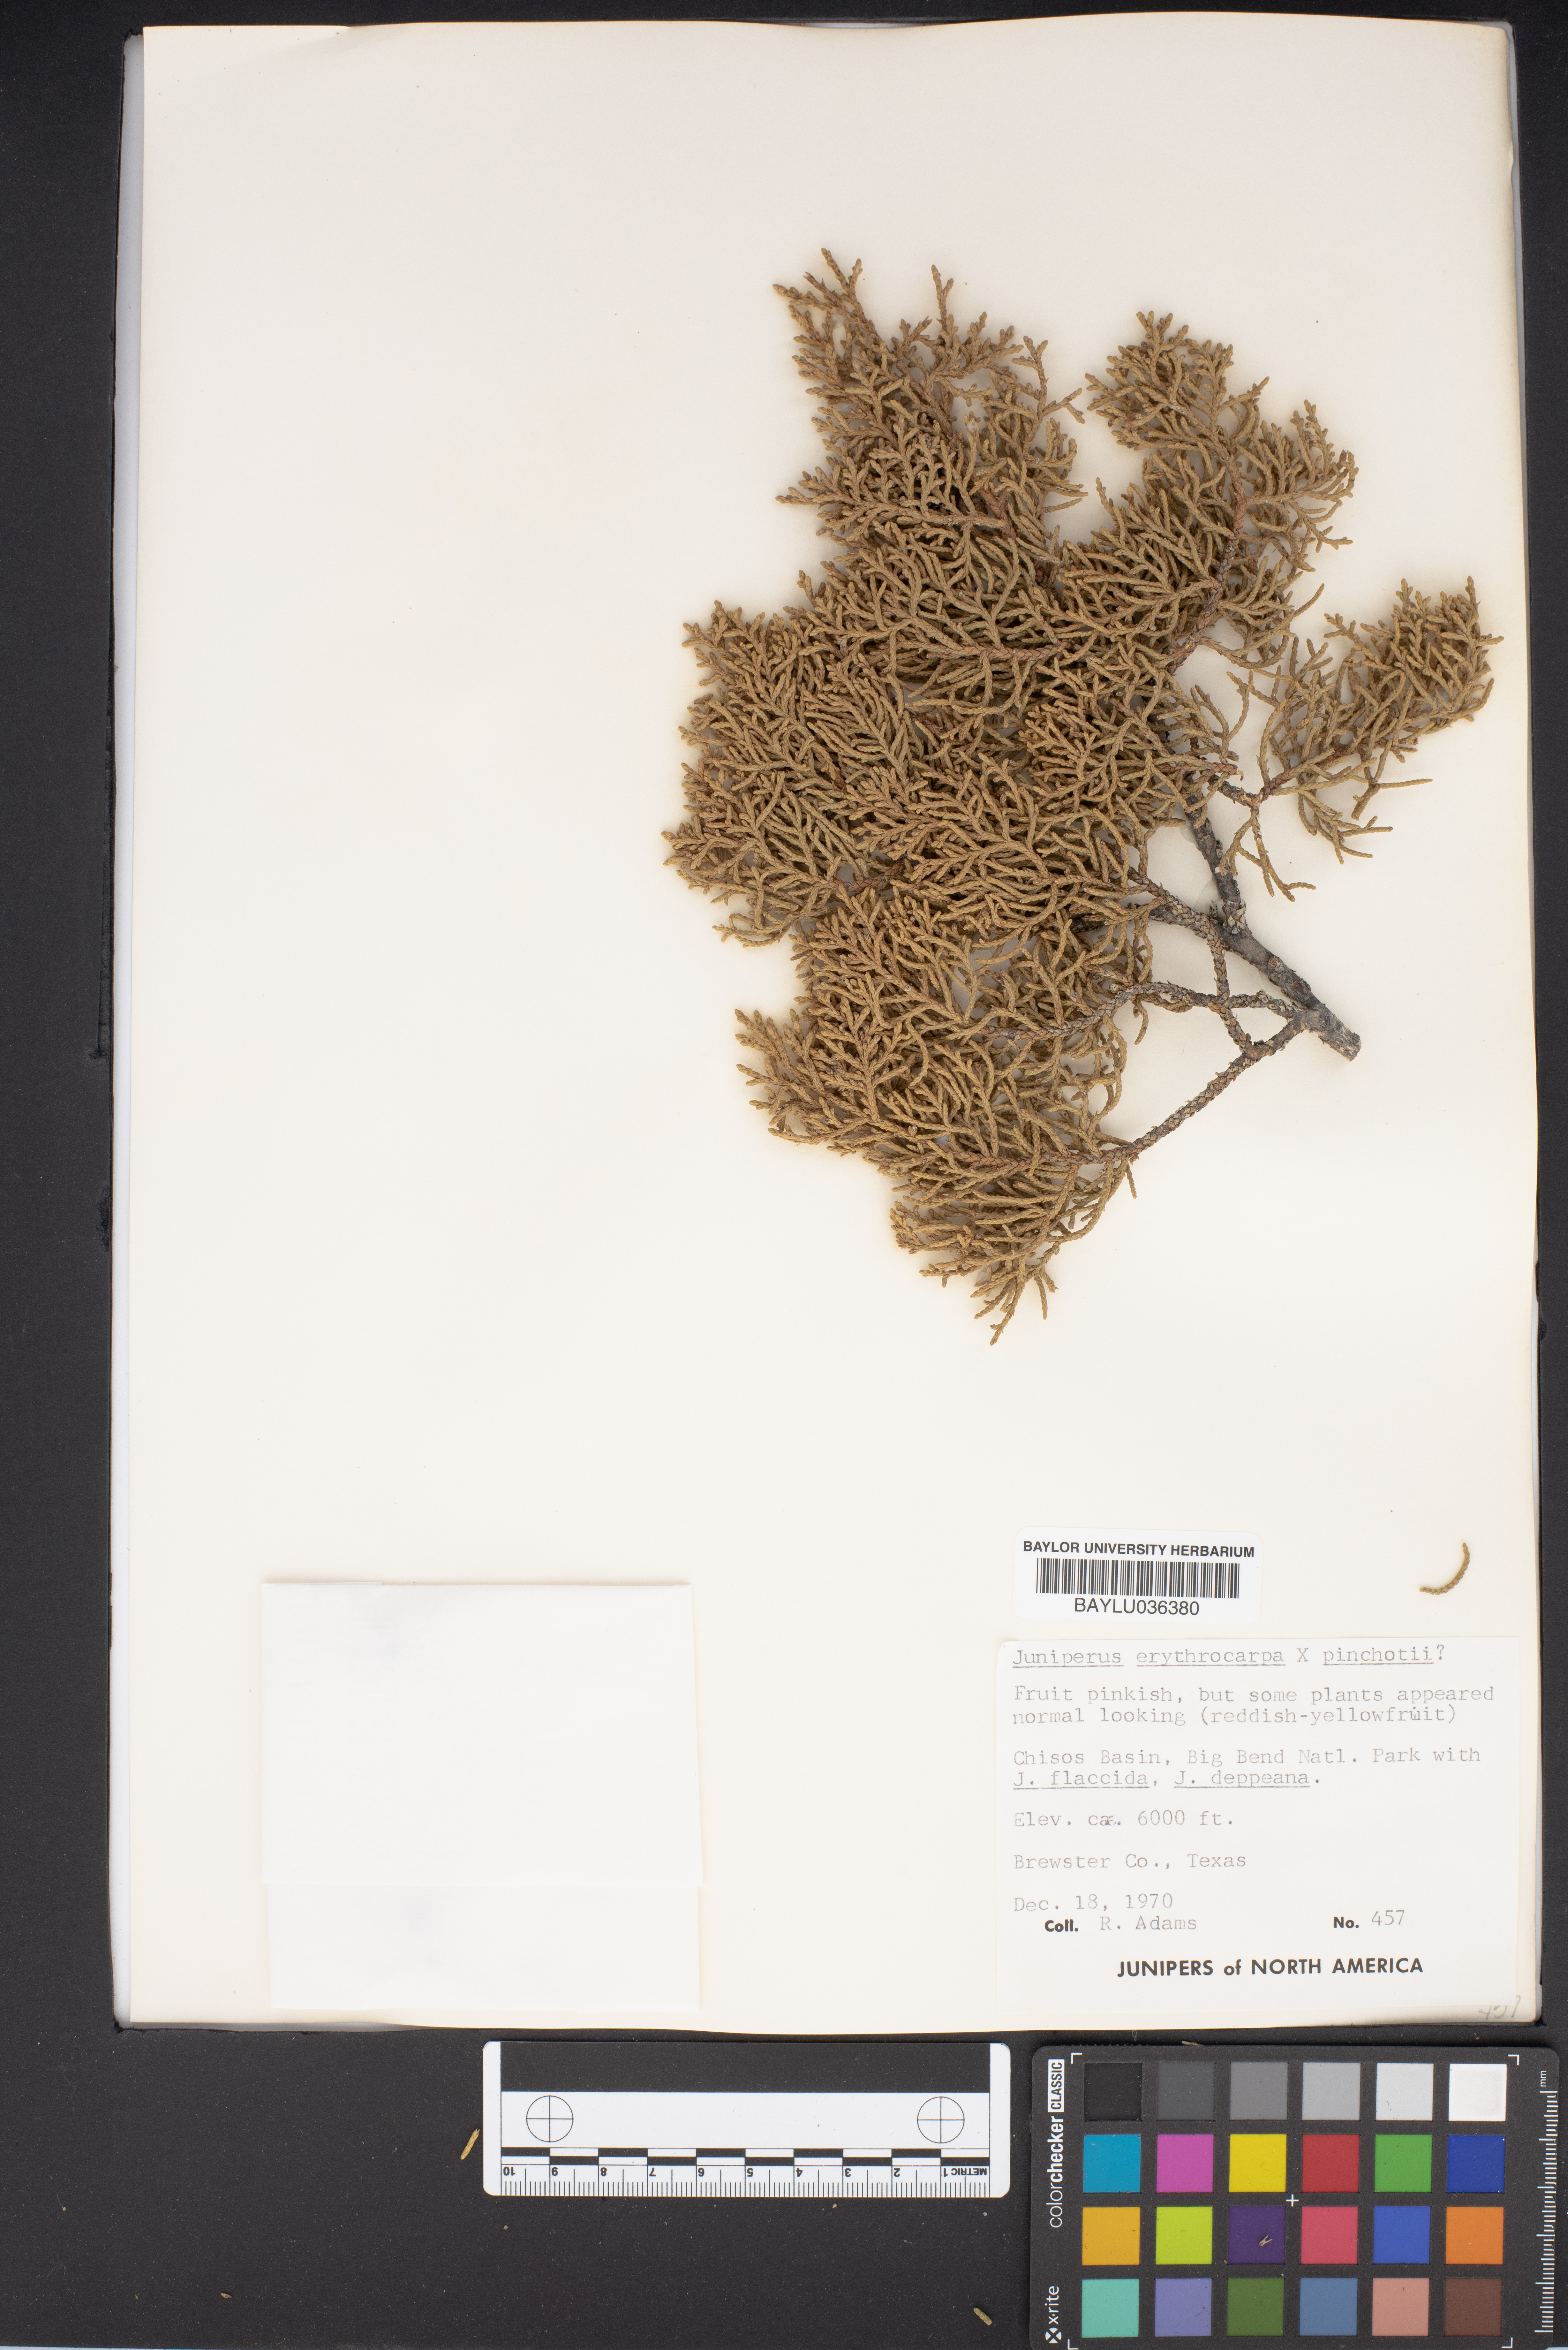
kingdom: Plantae
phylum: Tracheophyta
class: Pinopsida
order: Pinales
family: Cupressaceae
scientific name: Cupressaceae
